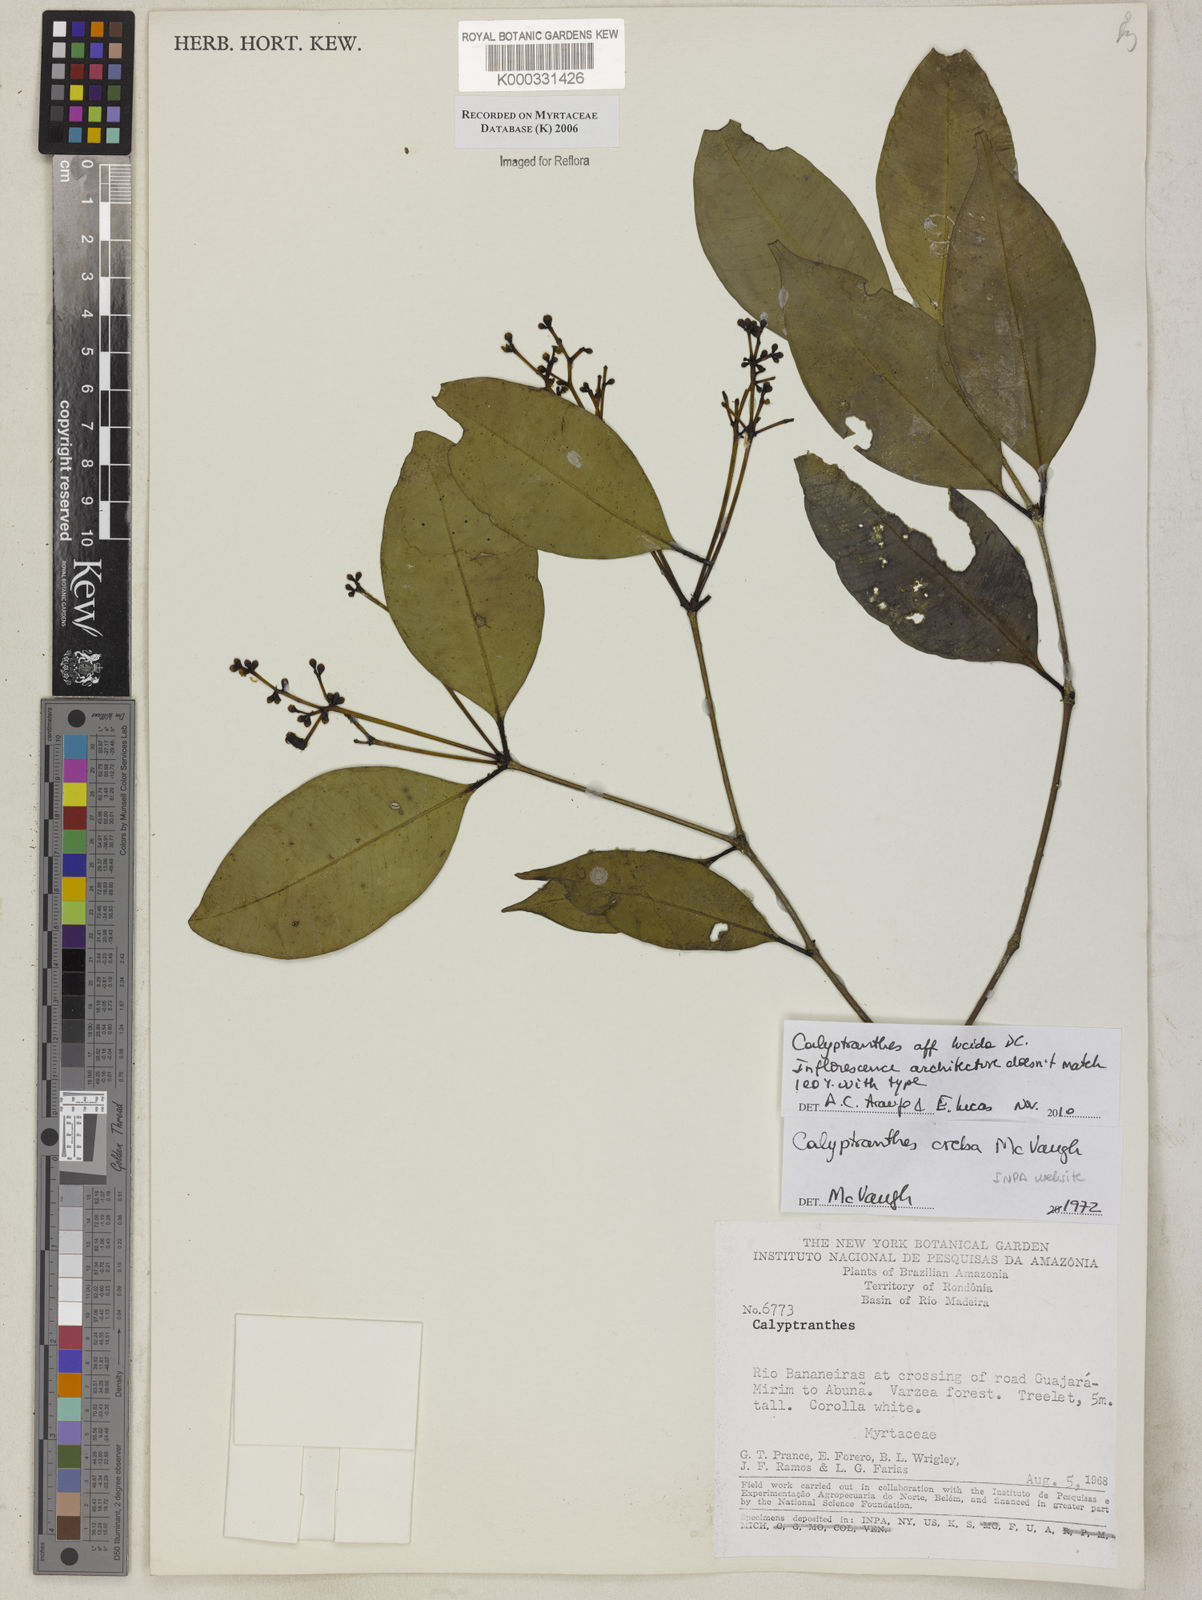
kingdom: Plantae
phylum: Tracheophyta
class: Magnoliopsida
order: Myrtales
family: Myrtaceae
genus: Calyptranthes
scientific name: Calyptranthes
